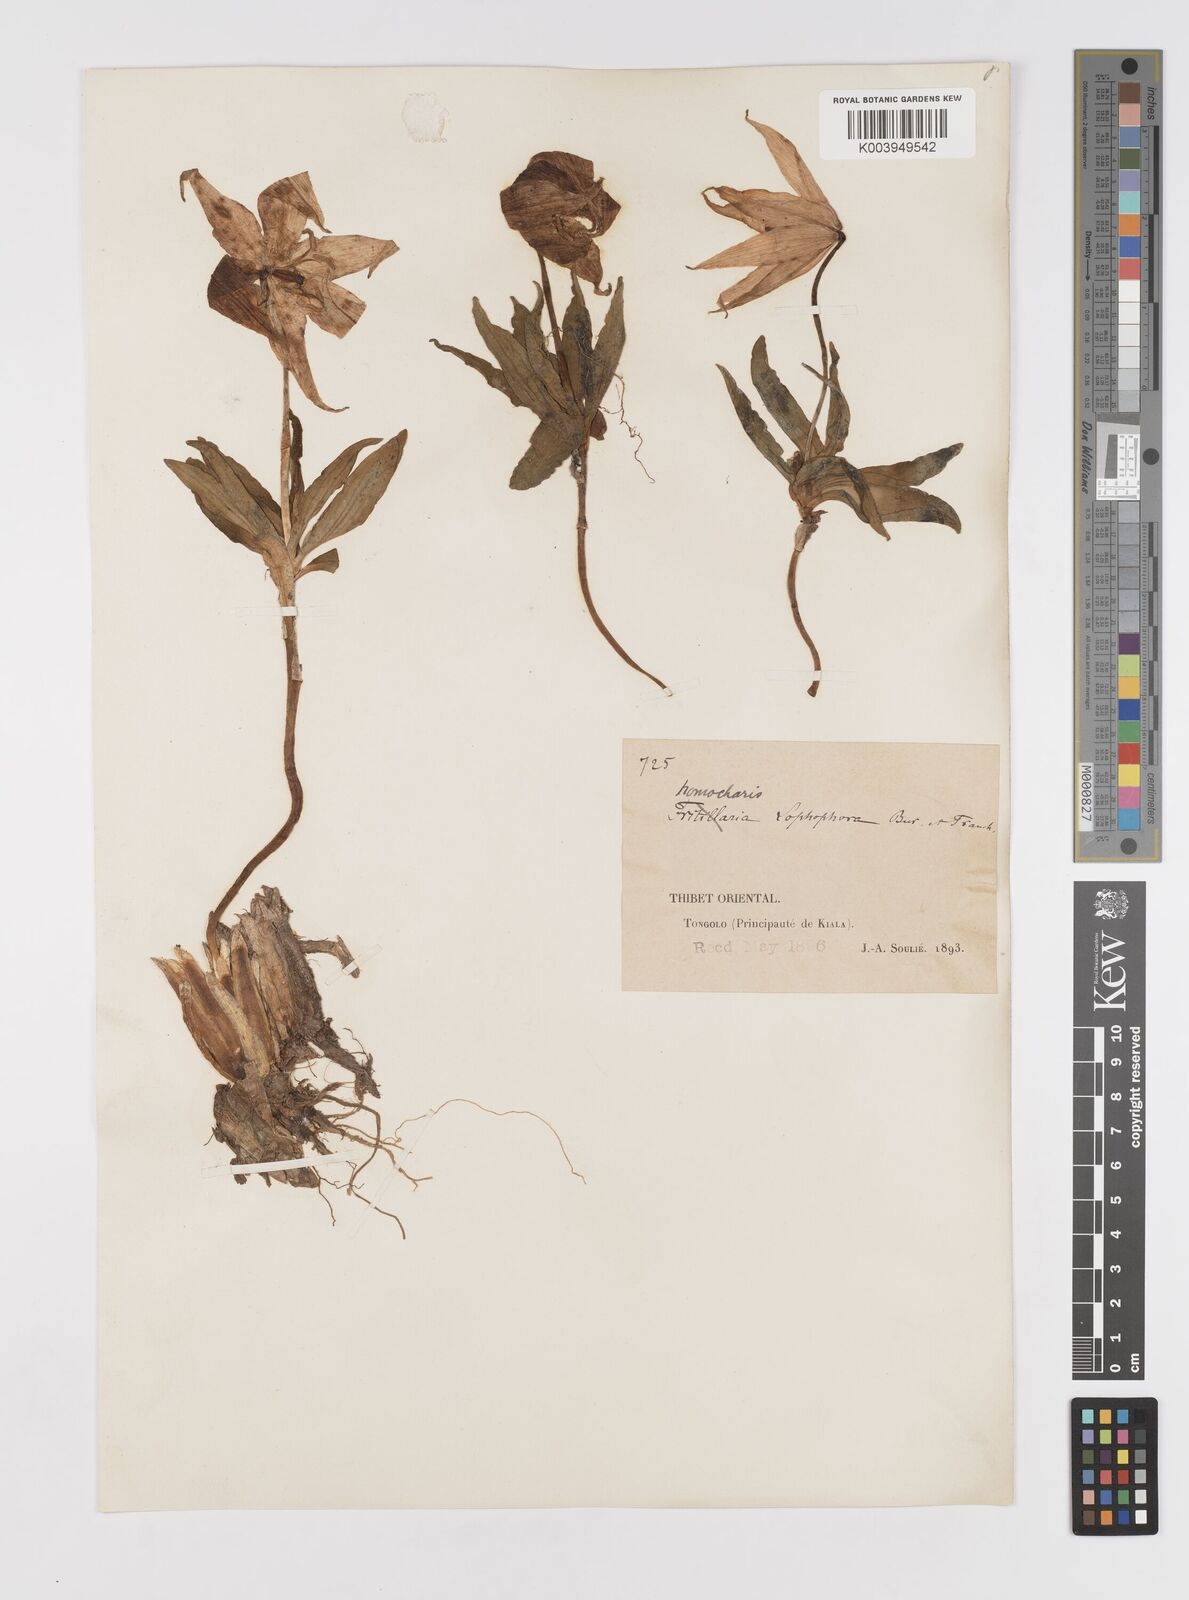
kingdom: Plantae
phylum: Tracheophyta
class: Liliopsida
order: Liliales
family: Liliaceae
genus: Lilium
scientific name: Lilium lophophorum
